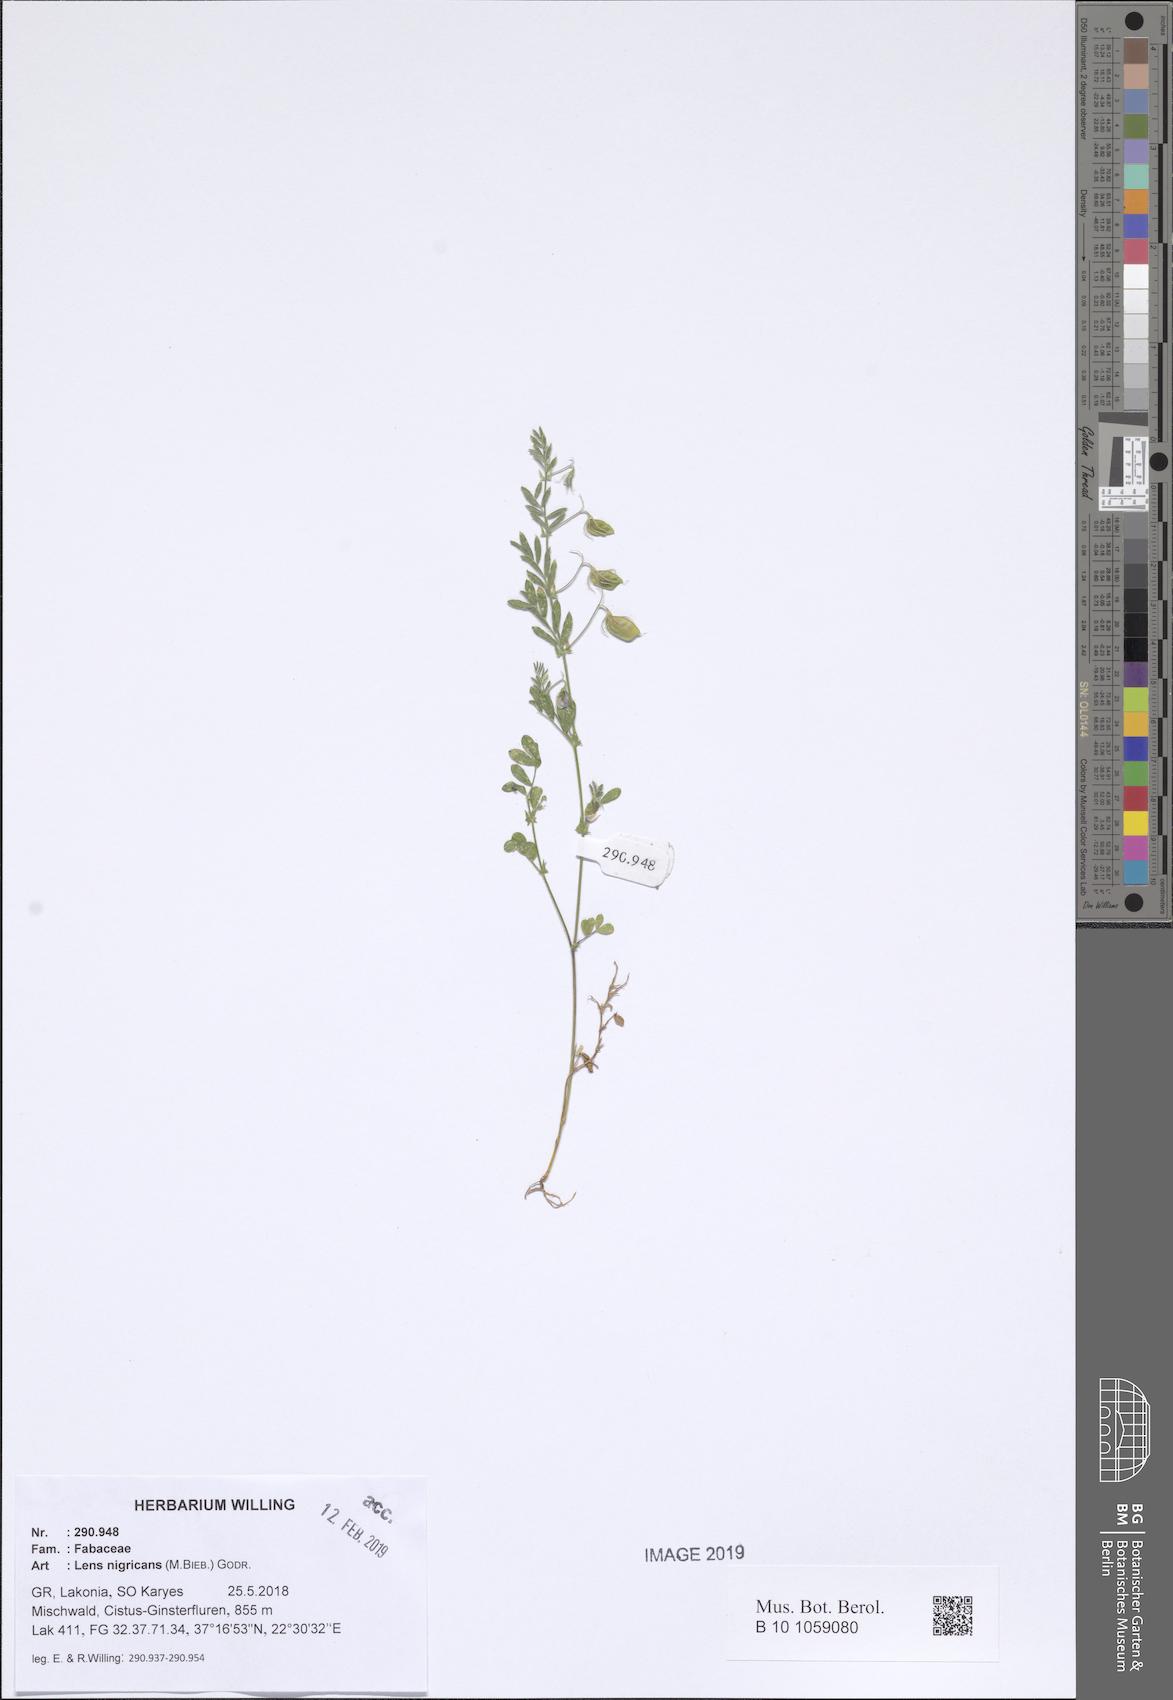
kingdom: Plantae
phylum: Tracheophyta
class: Magnoliopsida
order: Fabales
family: Fabaceae
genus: Vicia
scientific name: Vicia lentoides
